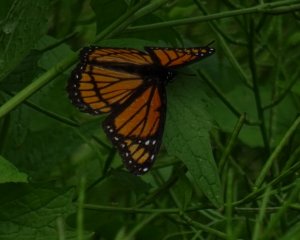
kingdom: Animalia
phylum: Arthropoda
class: Insecta
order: Lepidoptera
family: Nymphalidae
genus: Limenitis
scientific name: Limenitis archippus
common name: Viceroy
